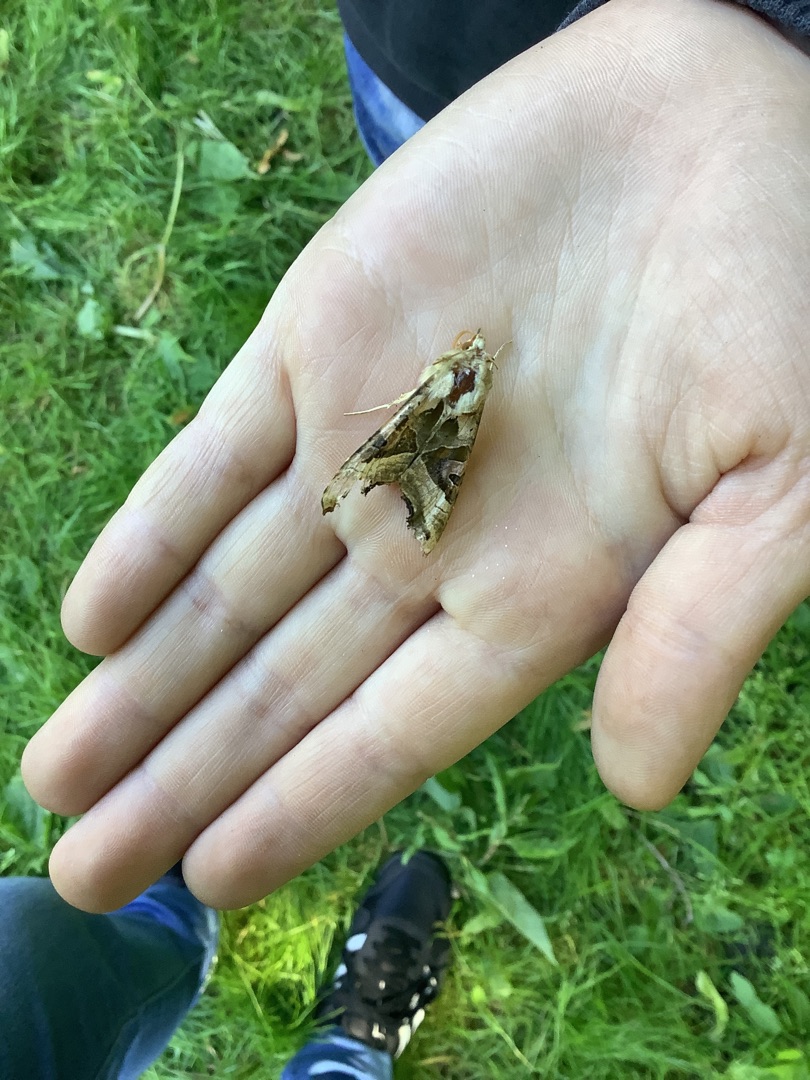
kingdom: Animalia
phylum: Arthropoda
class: Insecta
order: Lepidoptera
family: Noctuidae
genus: Phlogophora
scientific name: Phlogophora meticulosa
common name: Agatugle
